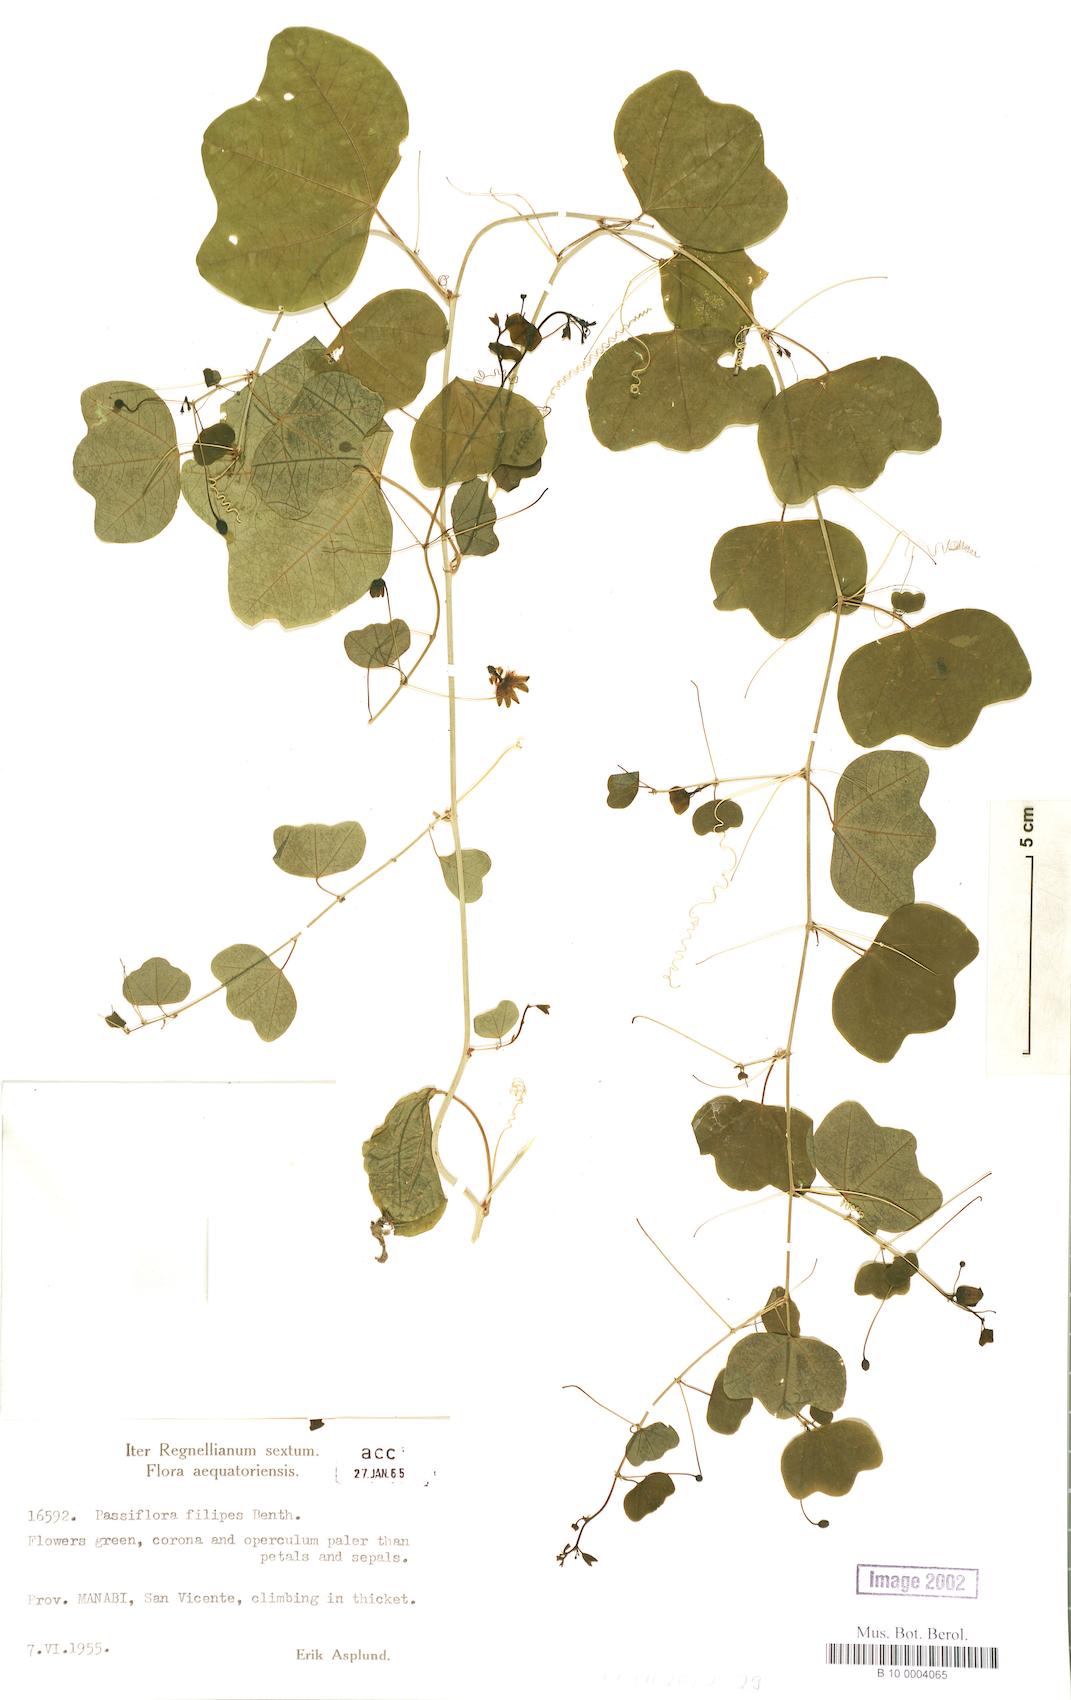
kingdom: Plantae
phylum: Tracheophyta
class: Magnoliopsida
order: Malpighiales
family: Passifloraceae
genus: Passiflora
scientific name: Passiflora filipes
